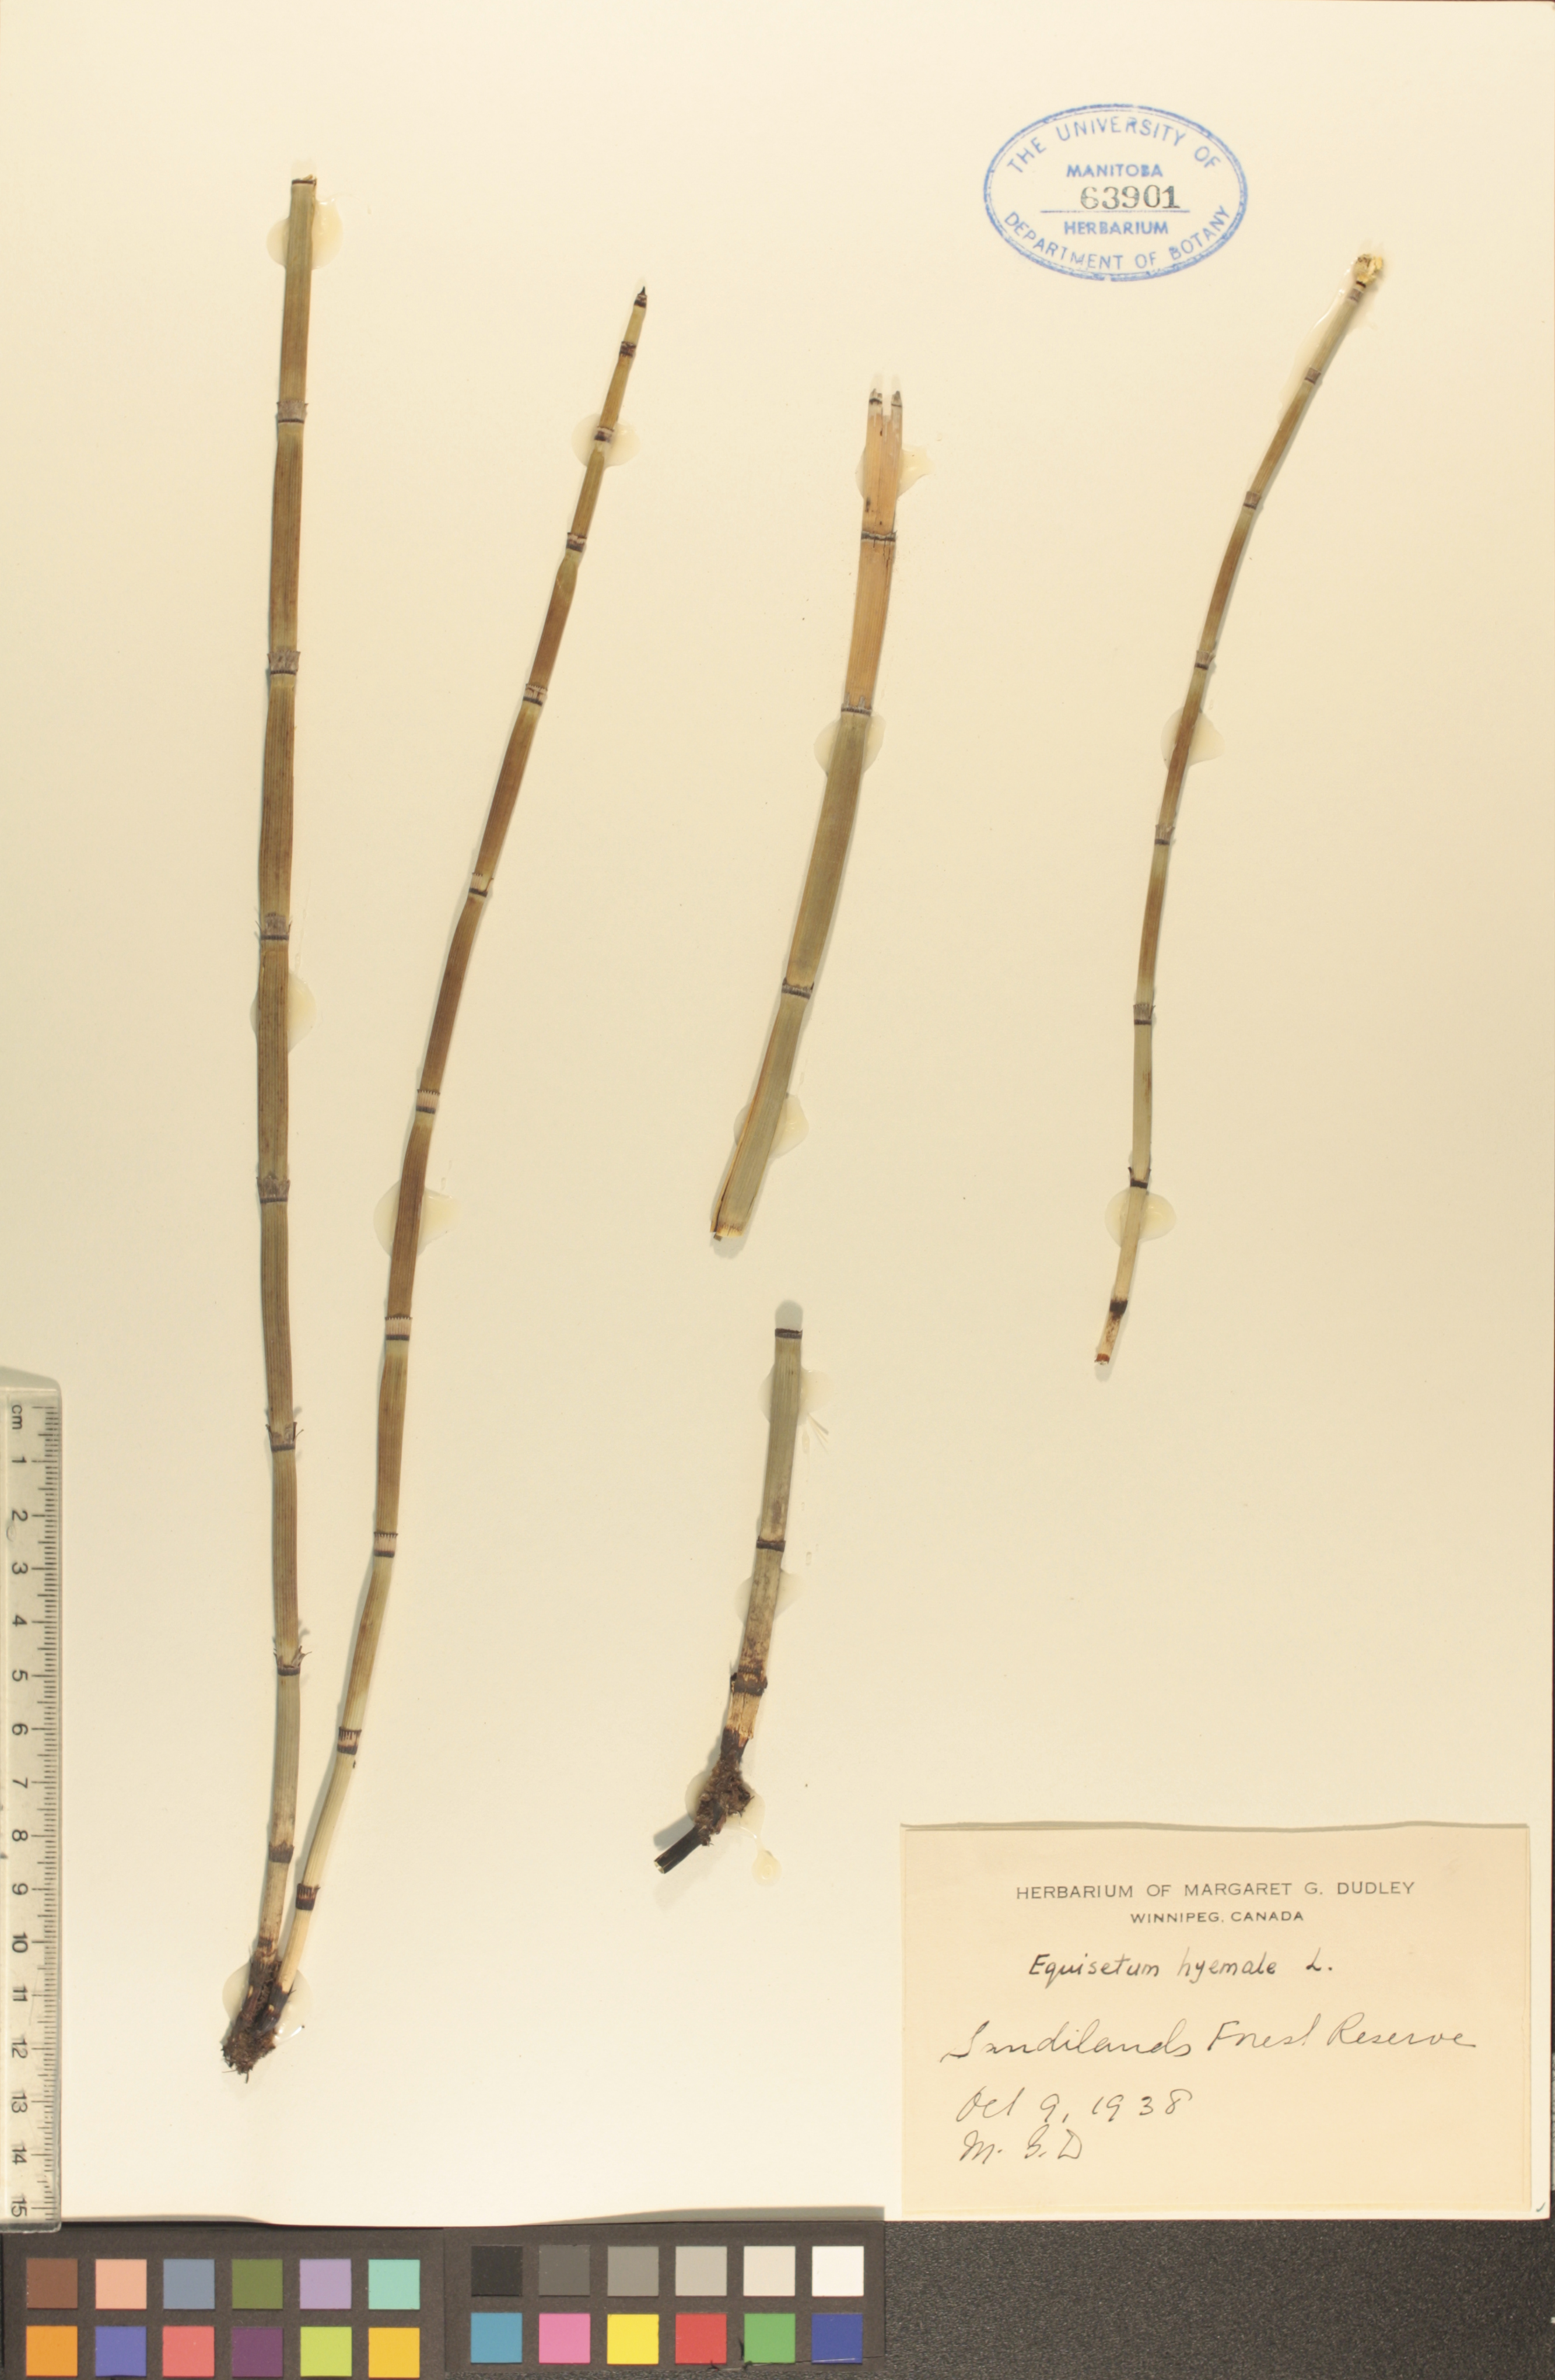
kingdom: Plantae
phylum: Tracheophyta
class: Polypodiopsida
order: Equisetales
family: Equisetaceae
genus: Equisetum
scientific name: Equisetum hyemale
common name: Rough horsetail
